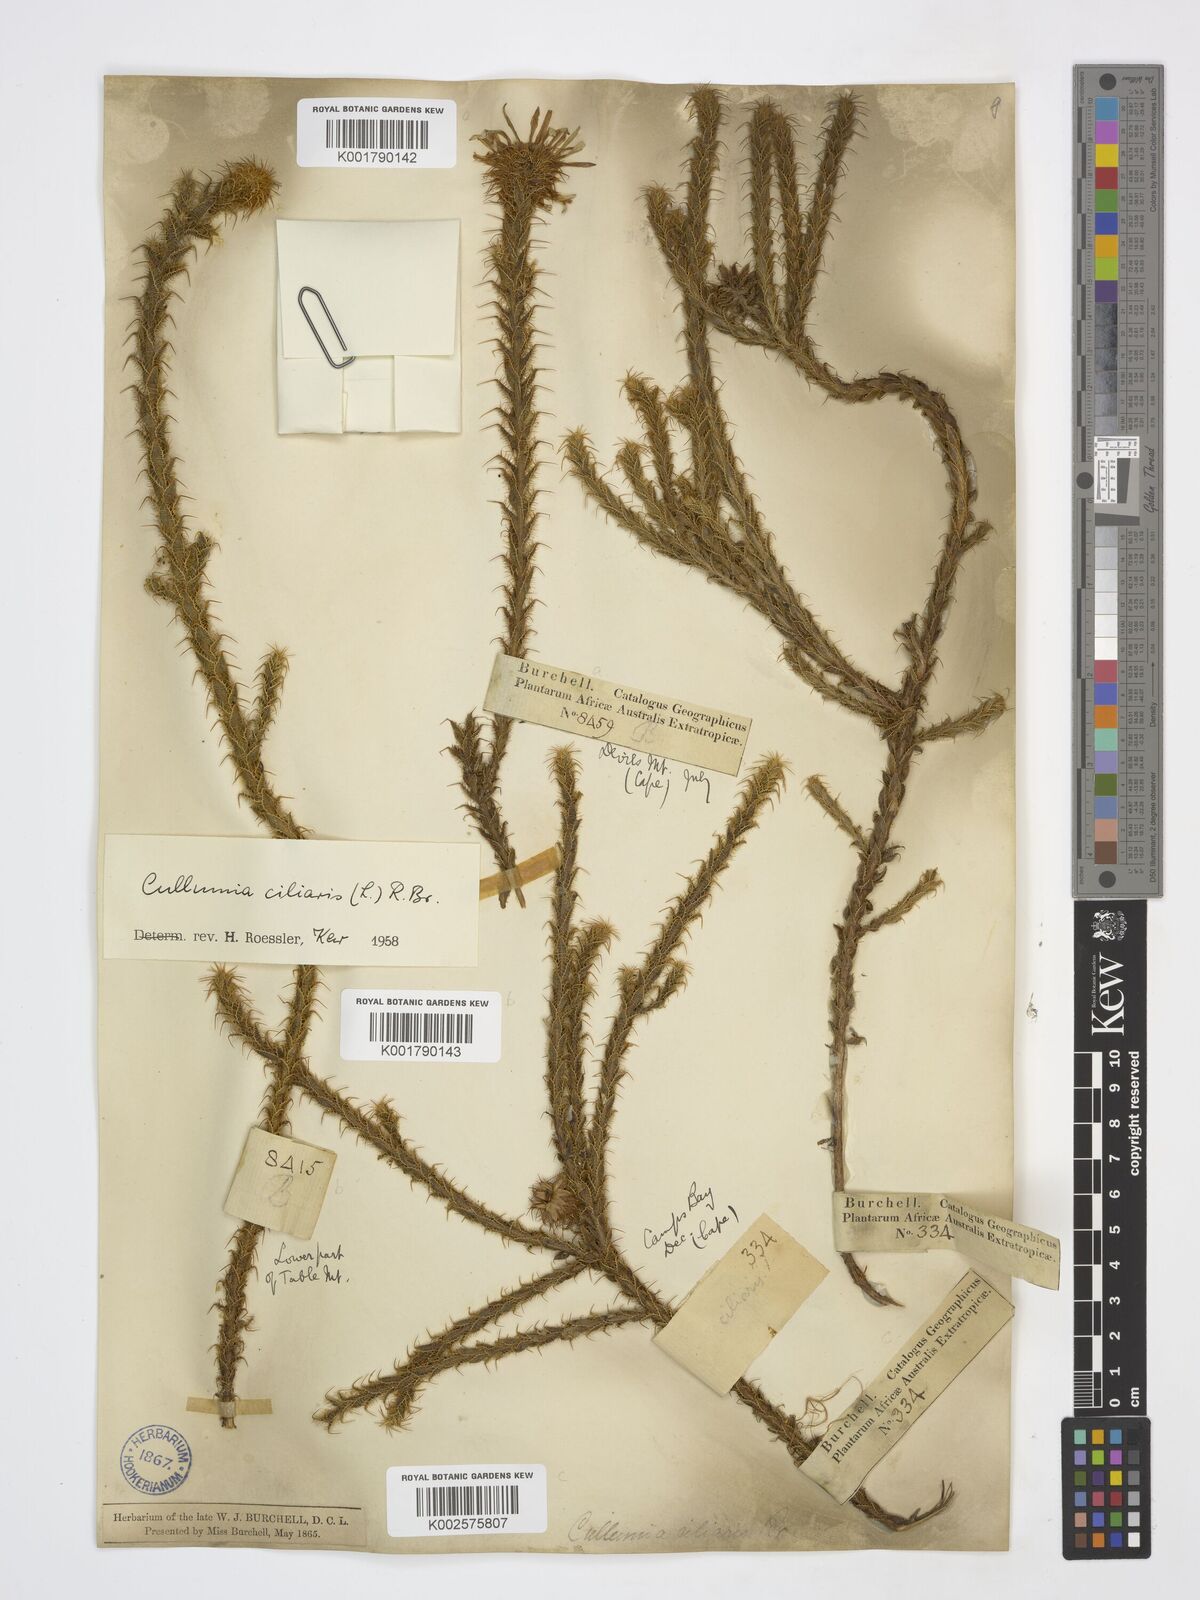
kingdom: Plantae
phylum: Tracheophyta
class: Magnoliopsida
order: Asterales
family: Asteraceae
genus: Cullumia
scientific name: Cullumia ciliaris
